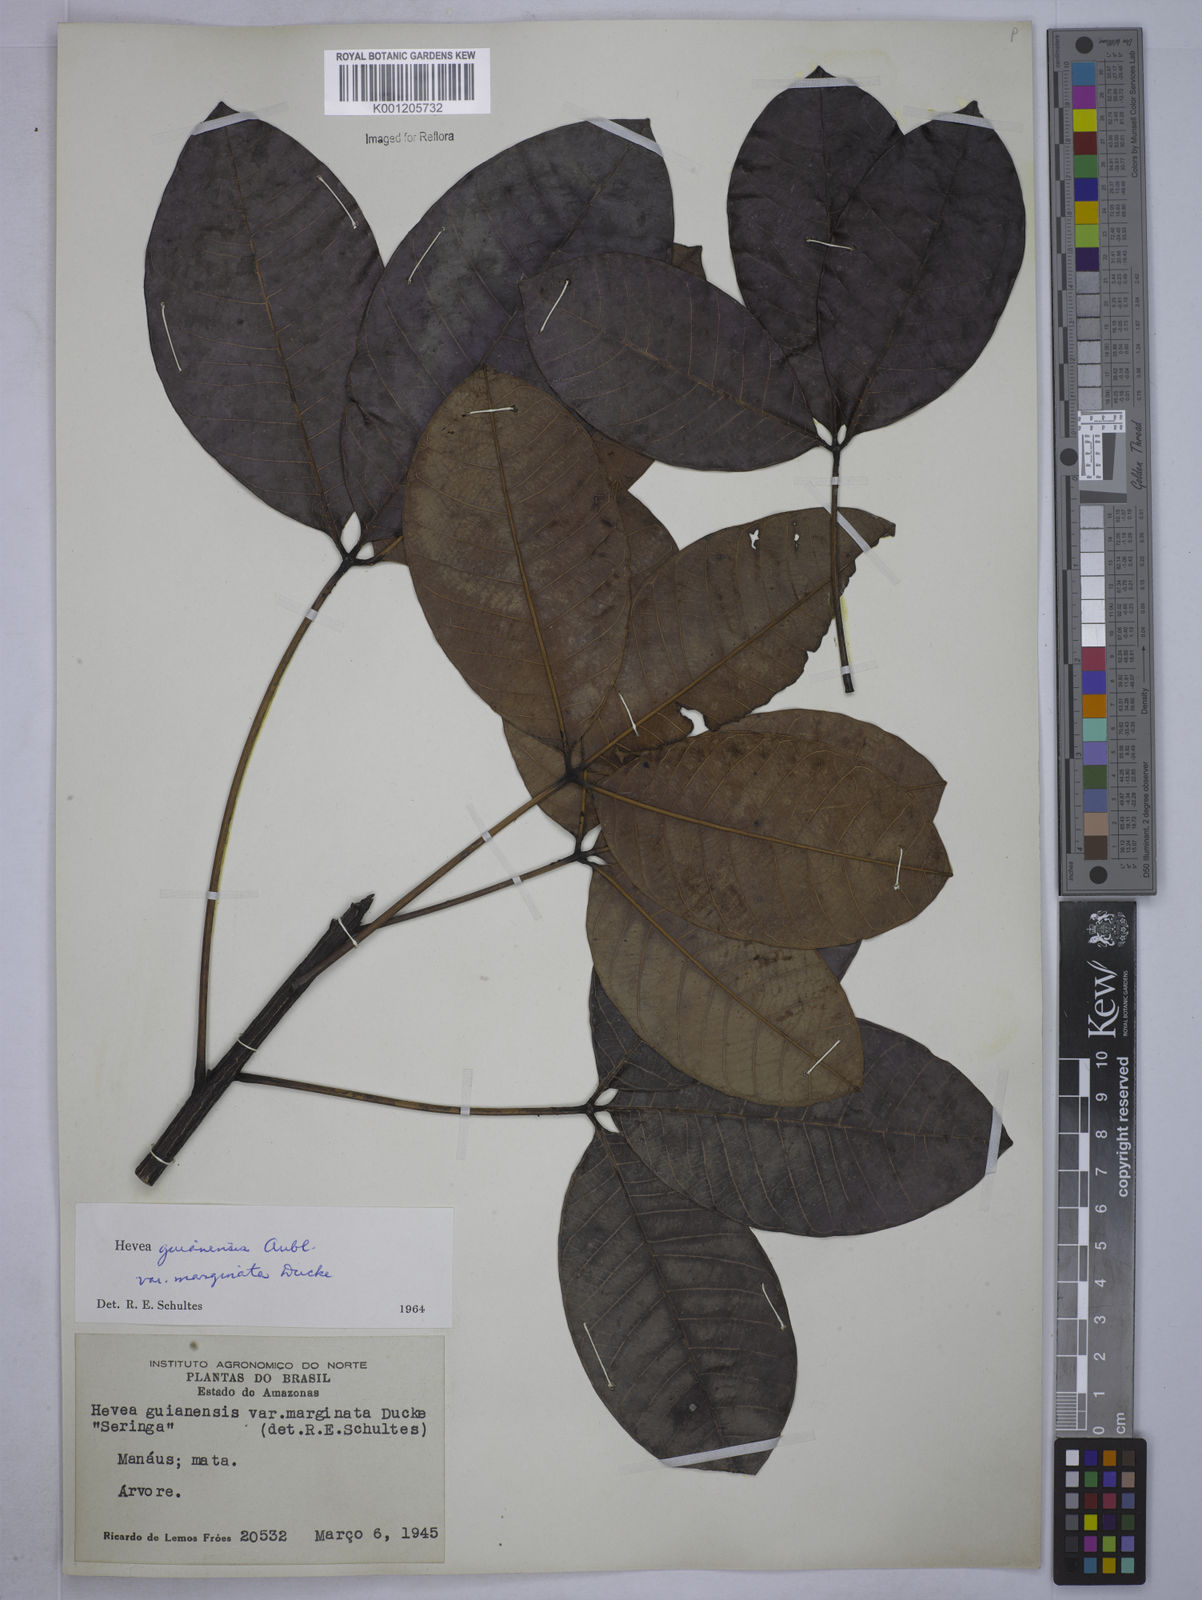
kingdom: Plantae
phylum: Tracheophyta
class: Magnoliopsida
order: Malpighiales
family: Euphorbiaceae
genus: Hevea
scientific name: Hevea guianensis
